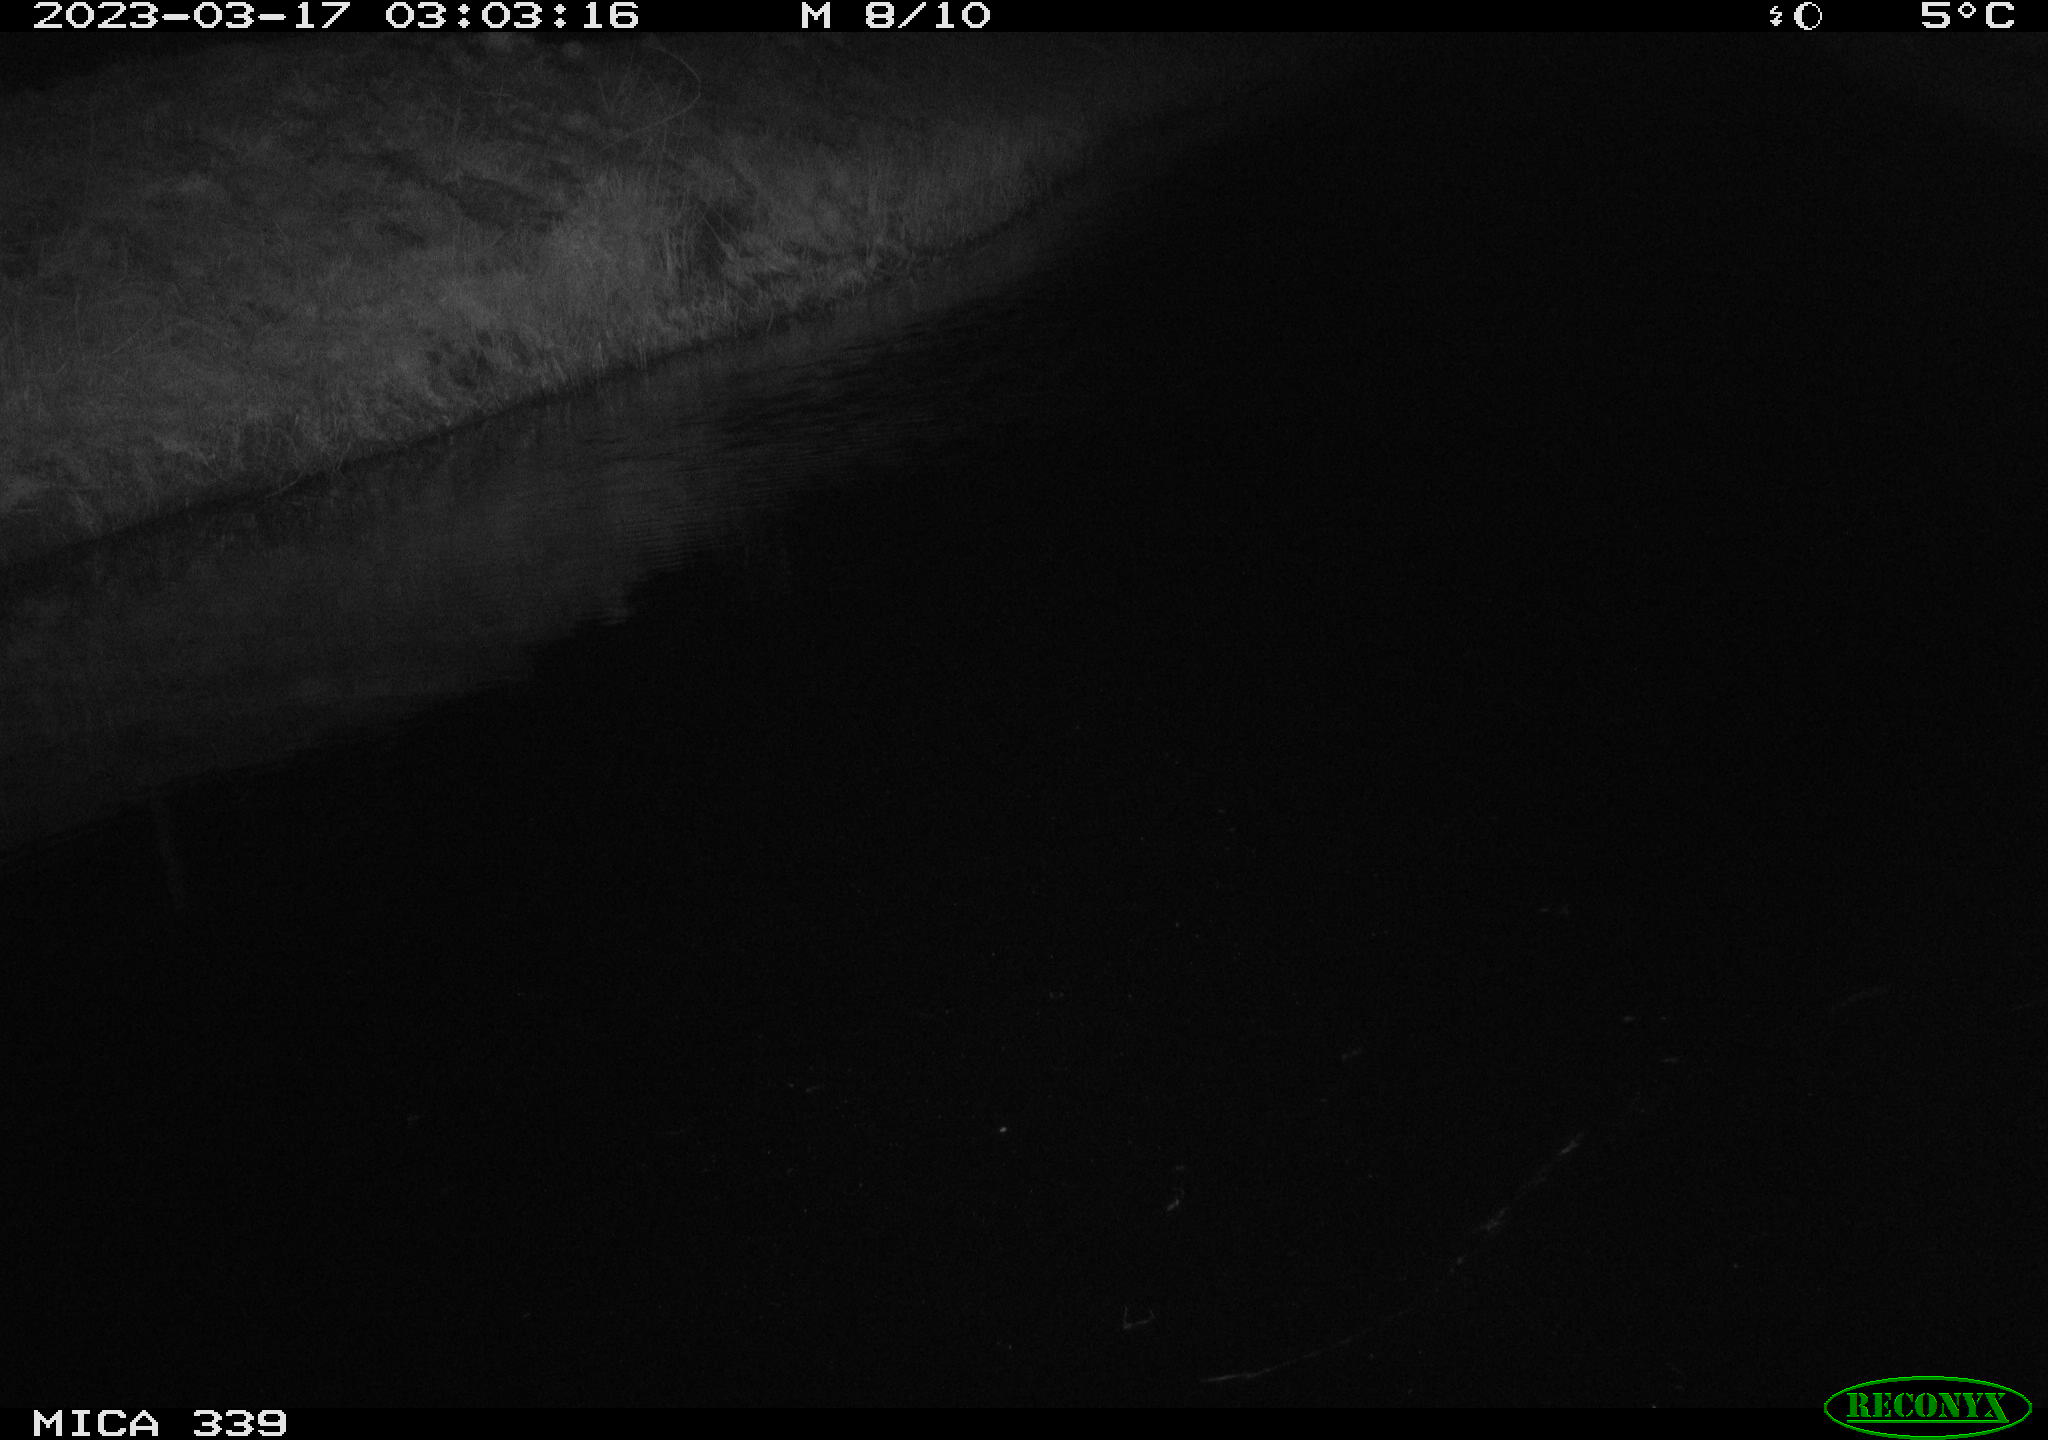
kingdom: Animalia
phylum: Chordata
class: Aves
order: Pelecaniformes
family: Ardeidae
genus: Ardea
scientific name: Ardea cinerea
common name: Grey heron
